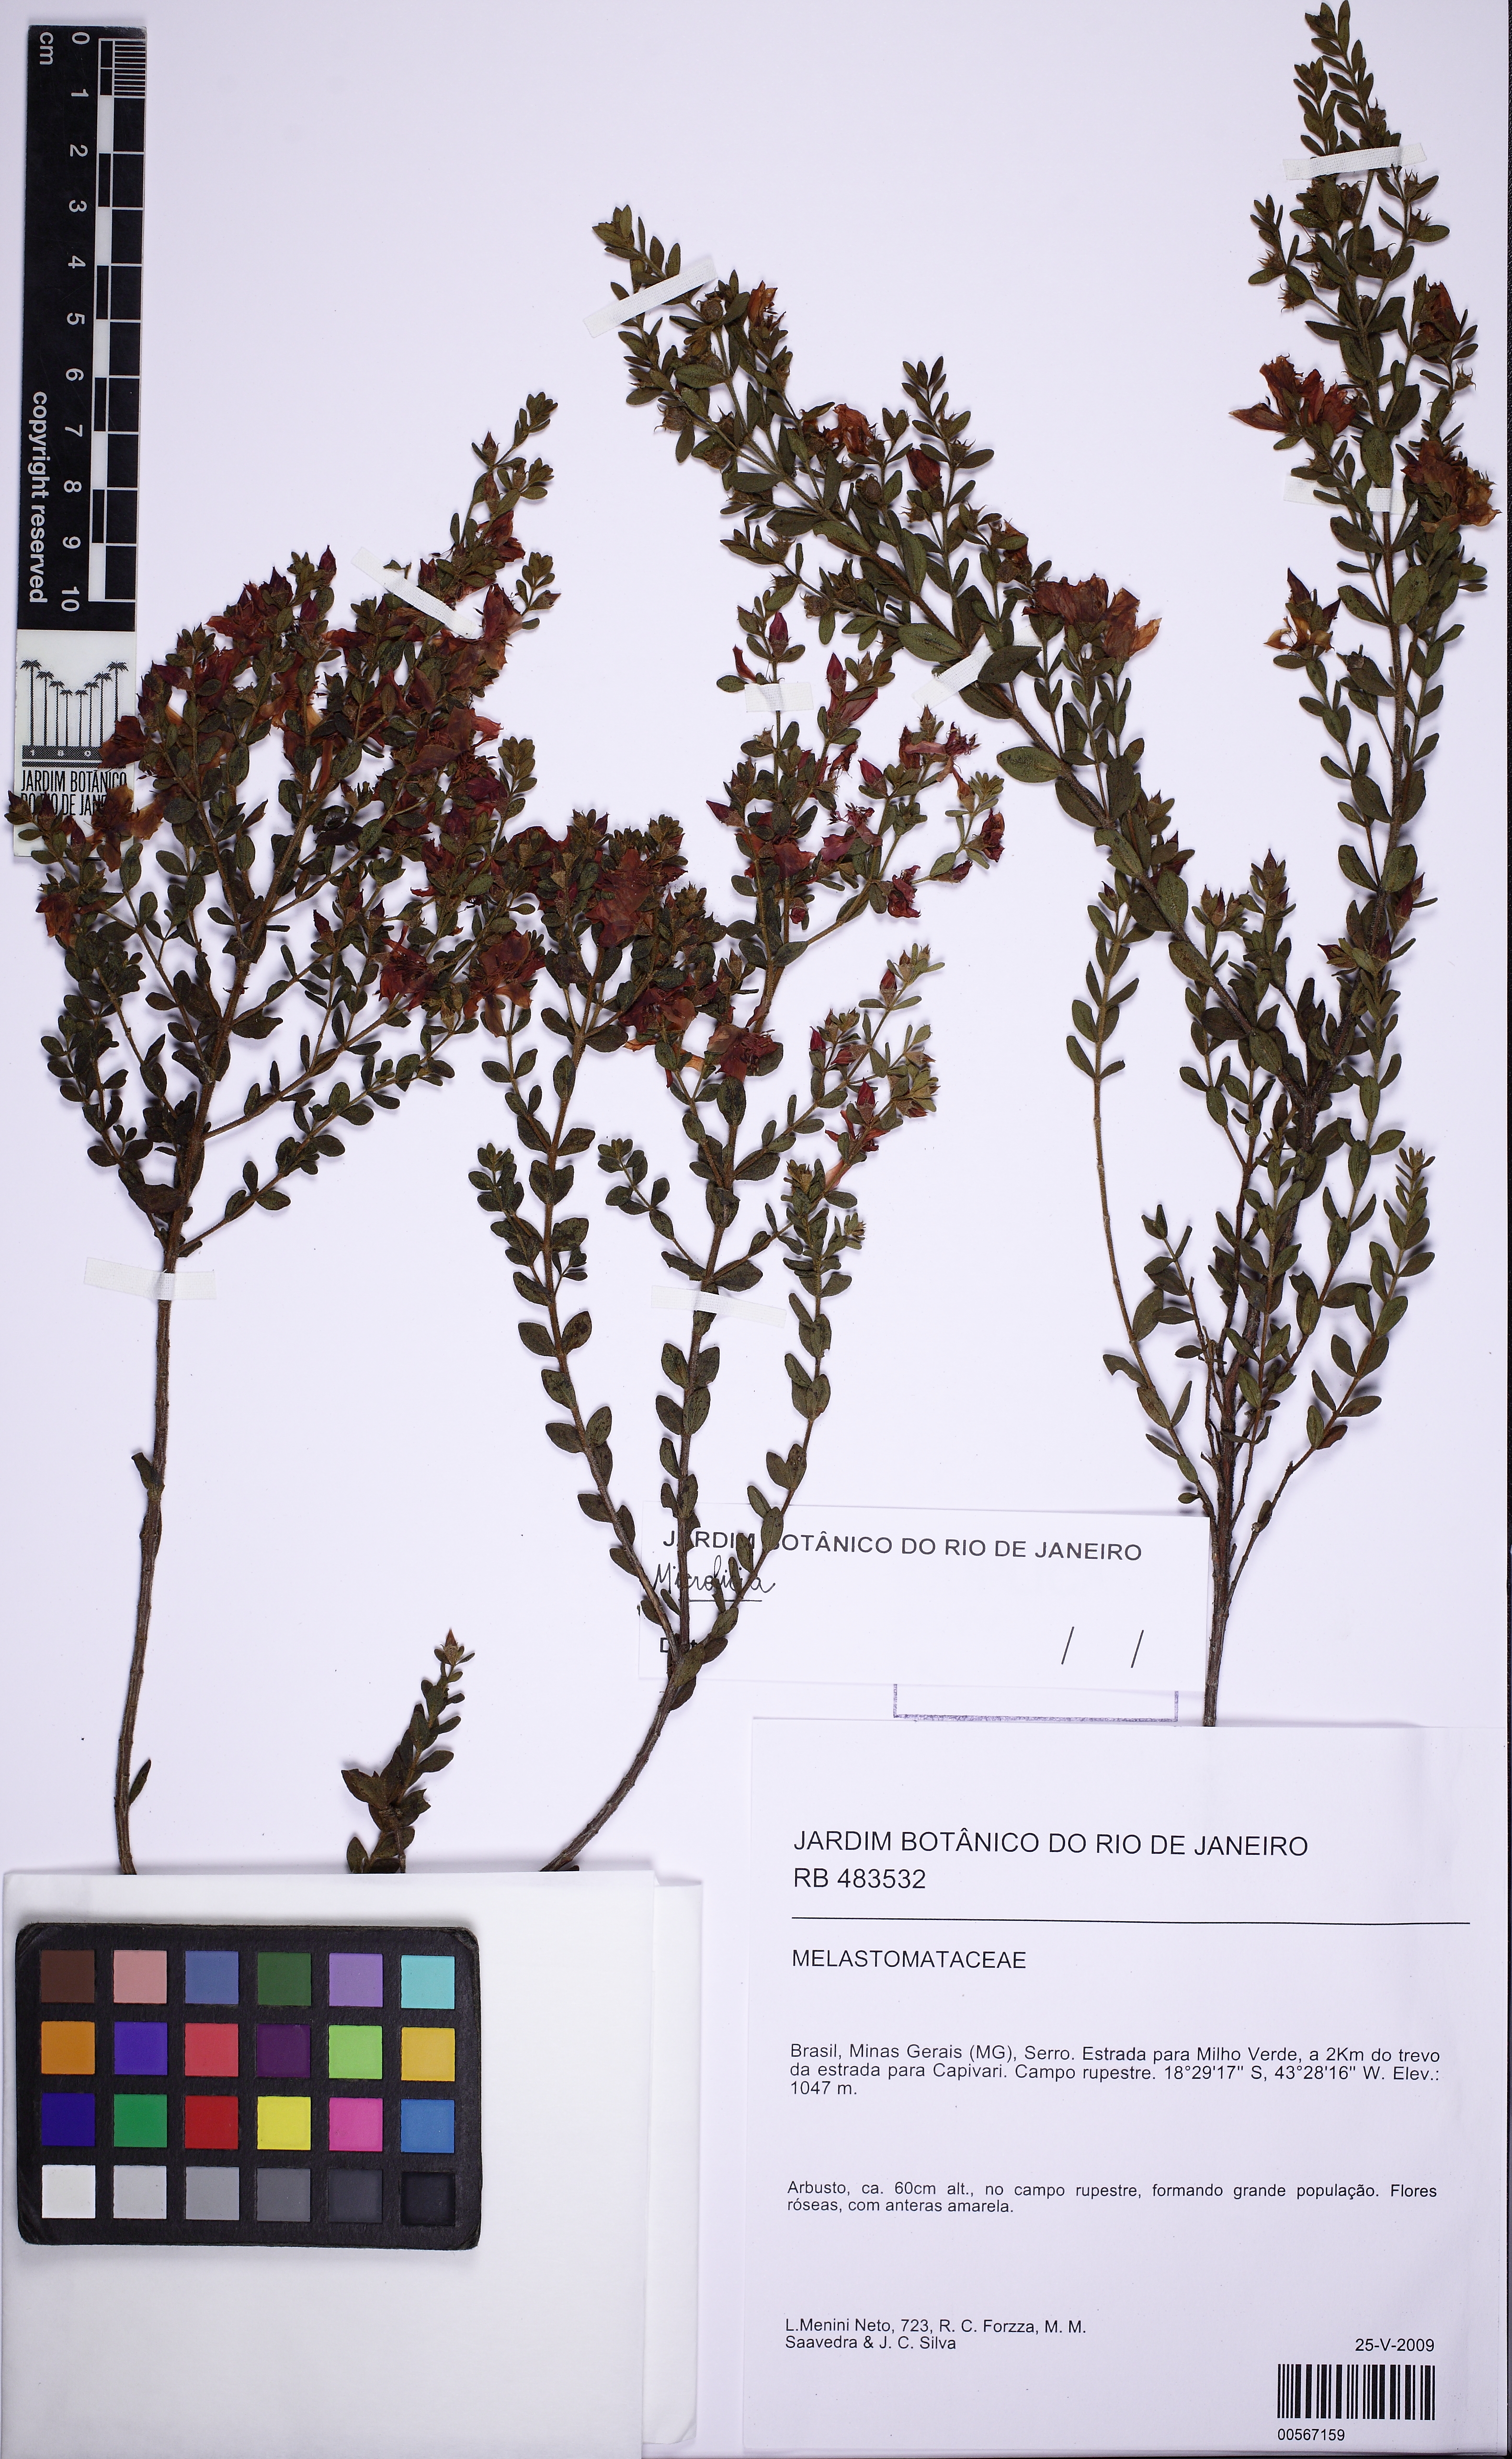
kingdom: Plantae
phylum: Tracheophyta
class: Magnoliopsida
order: Myrtales
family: Melastomataceae
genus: Microlicia
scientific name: Microlicia tomentella
